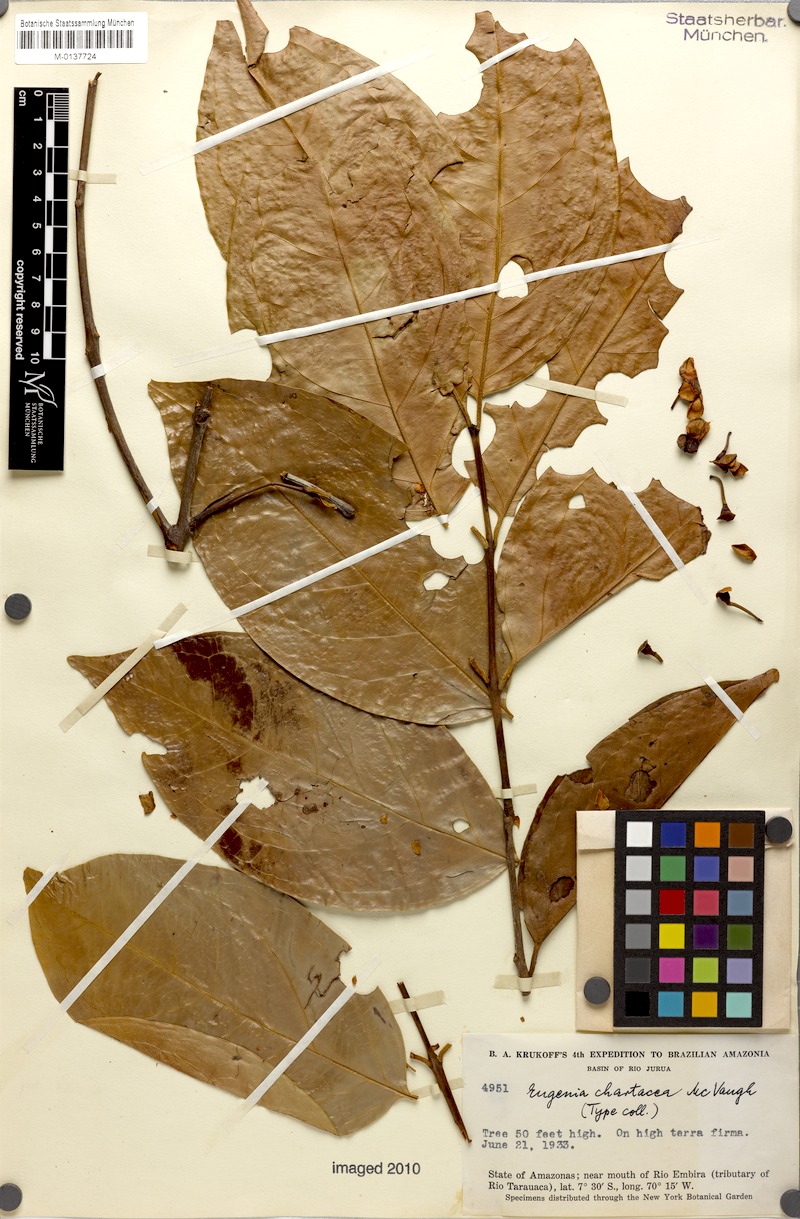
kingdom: Plantae
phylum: Tracheophyta
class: Magnoliopsida
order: Myrtales
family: Myrtaceae
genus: Eugenia
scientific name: Eugenia chartacea
